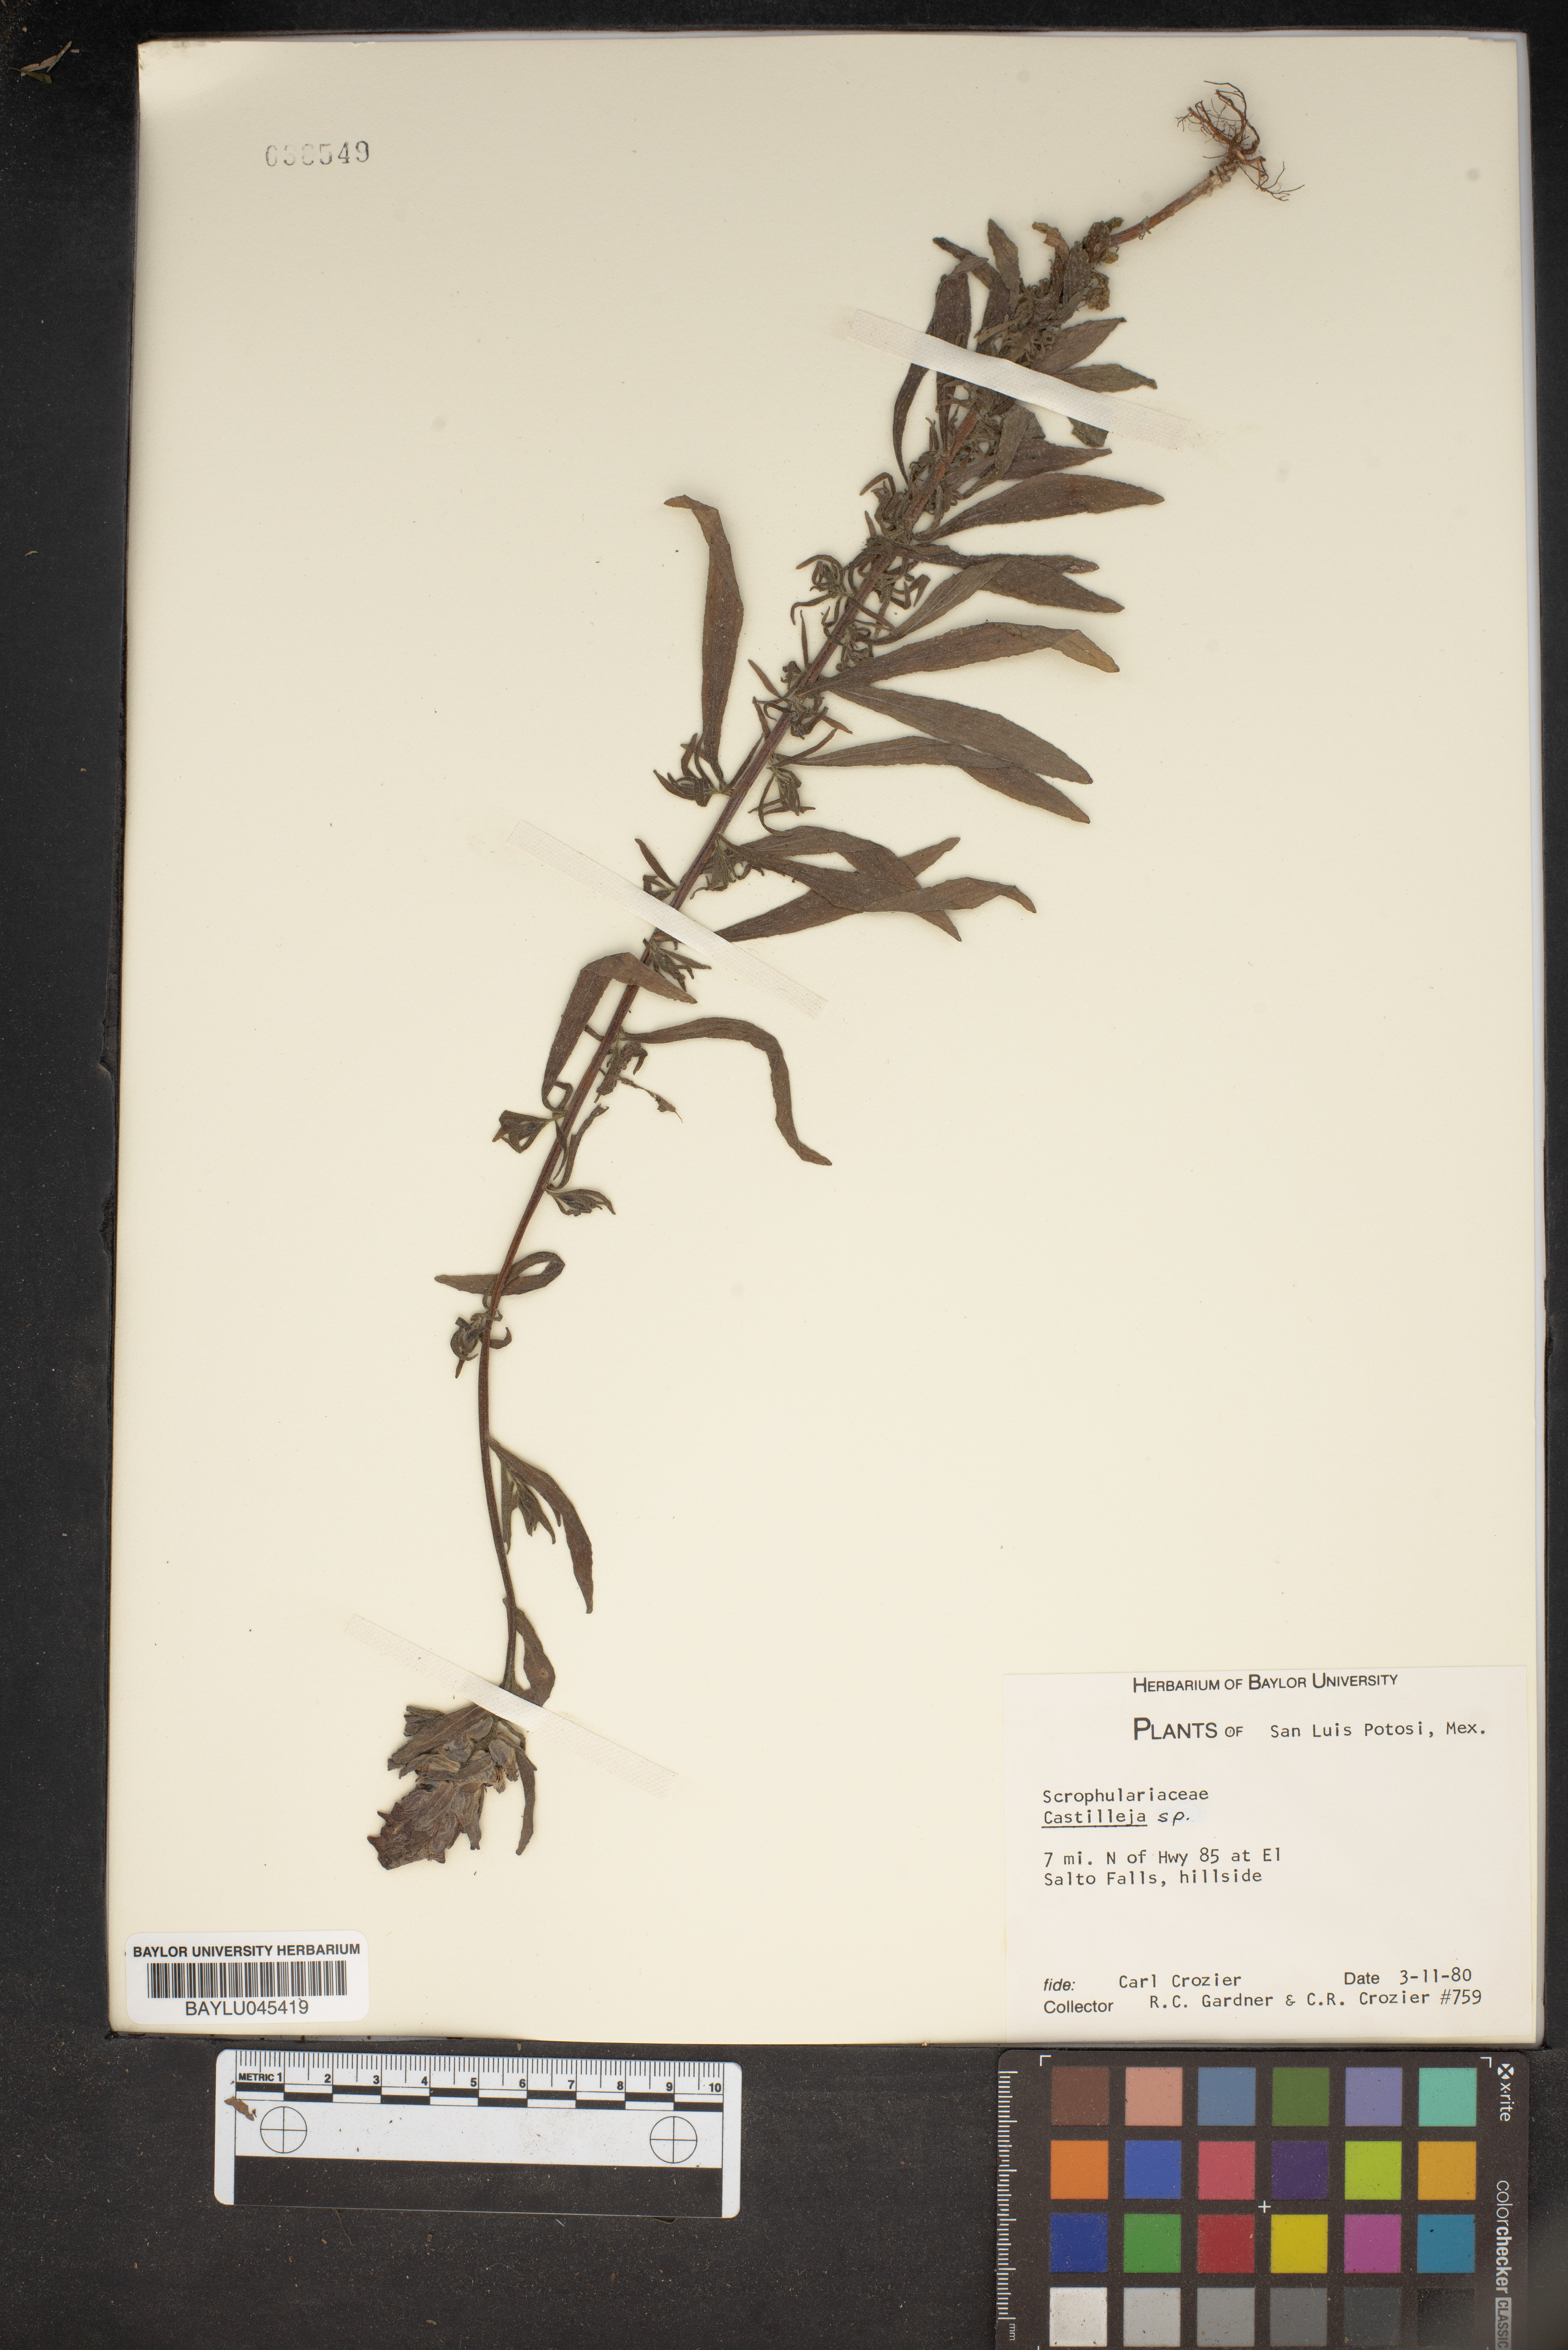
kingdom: Plantae
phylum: Tracheophyta
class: Magnoliopsida
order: Lamiales
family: Orobanchaceae
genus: Castilleja
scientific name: Castilleja
